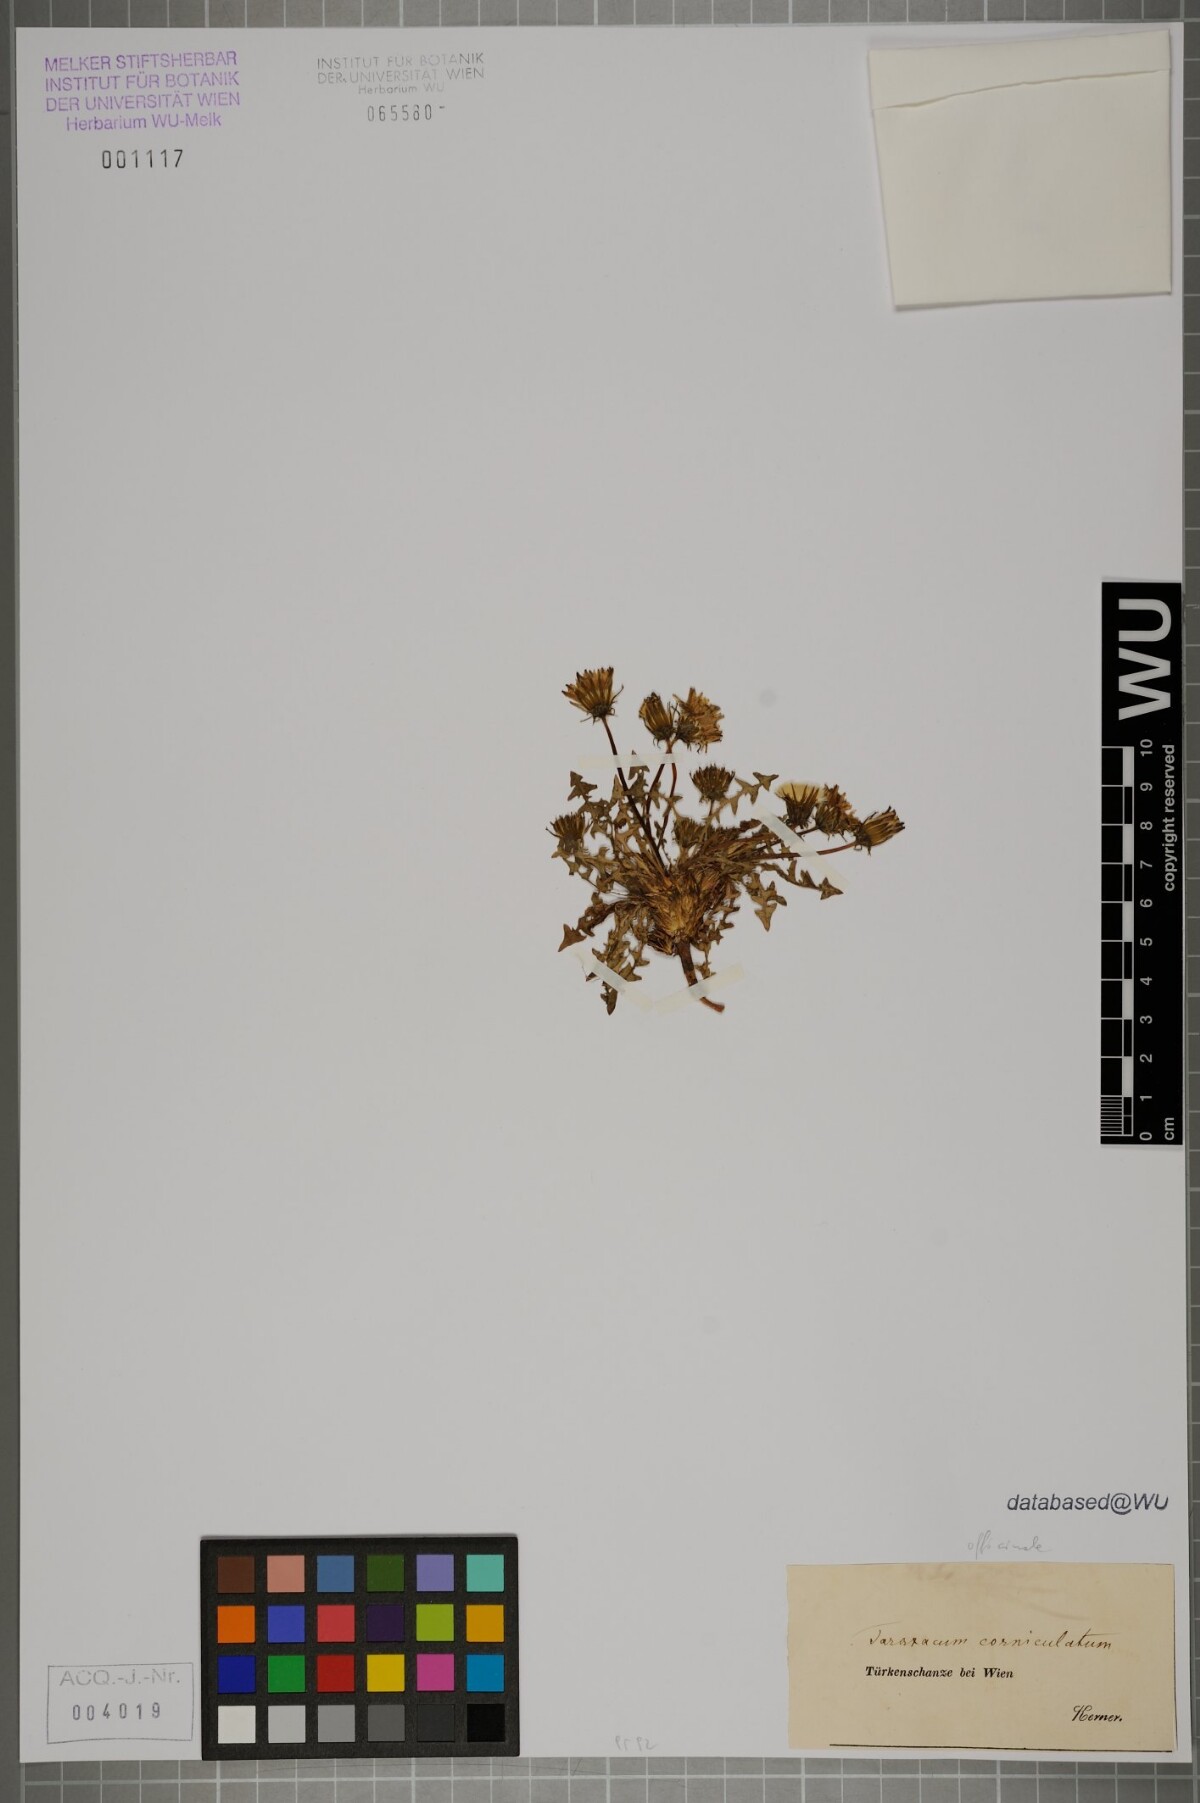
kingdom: Plantae
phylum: Tracheophyta
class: Magnoliopsida
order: Asterales
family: Asteraceae
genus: Taraxacum
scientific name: Taraxacum
